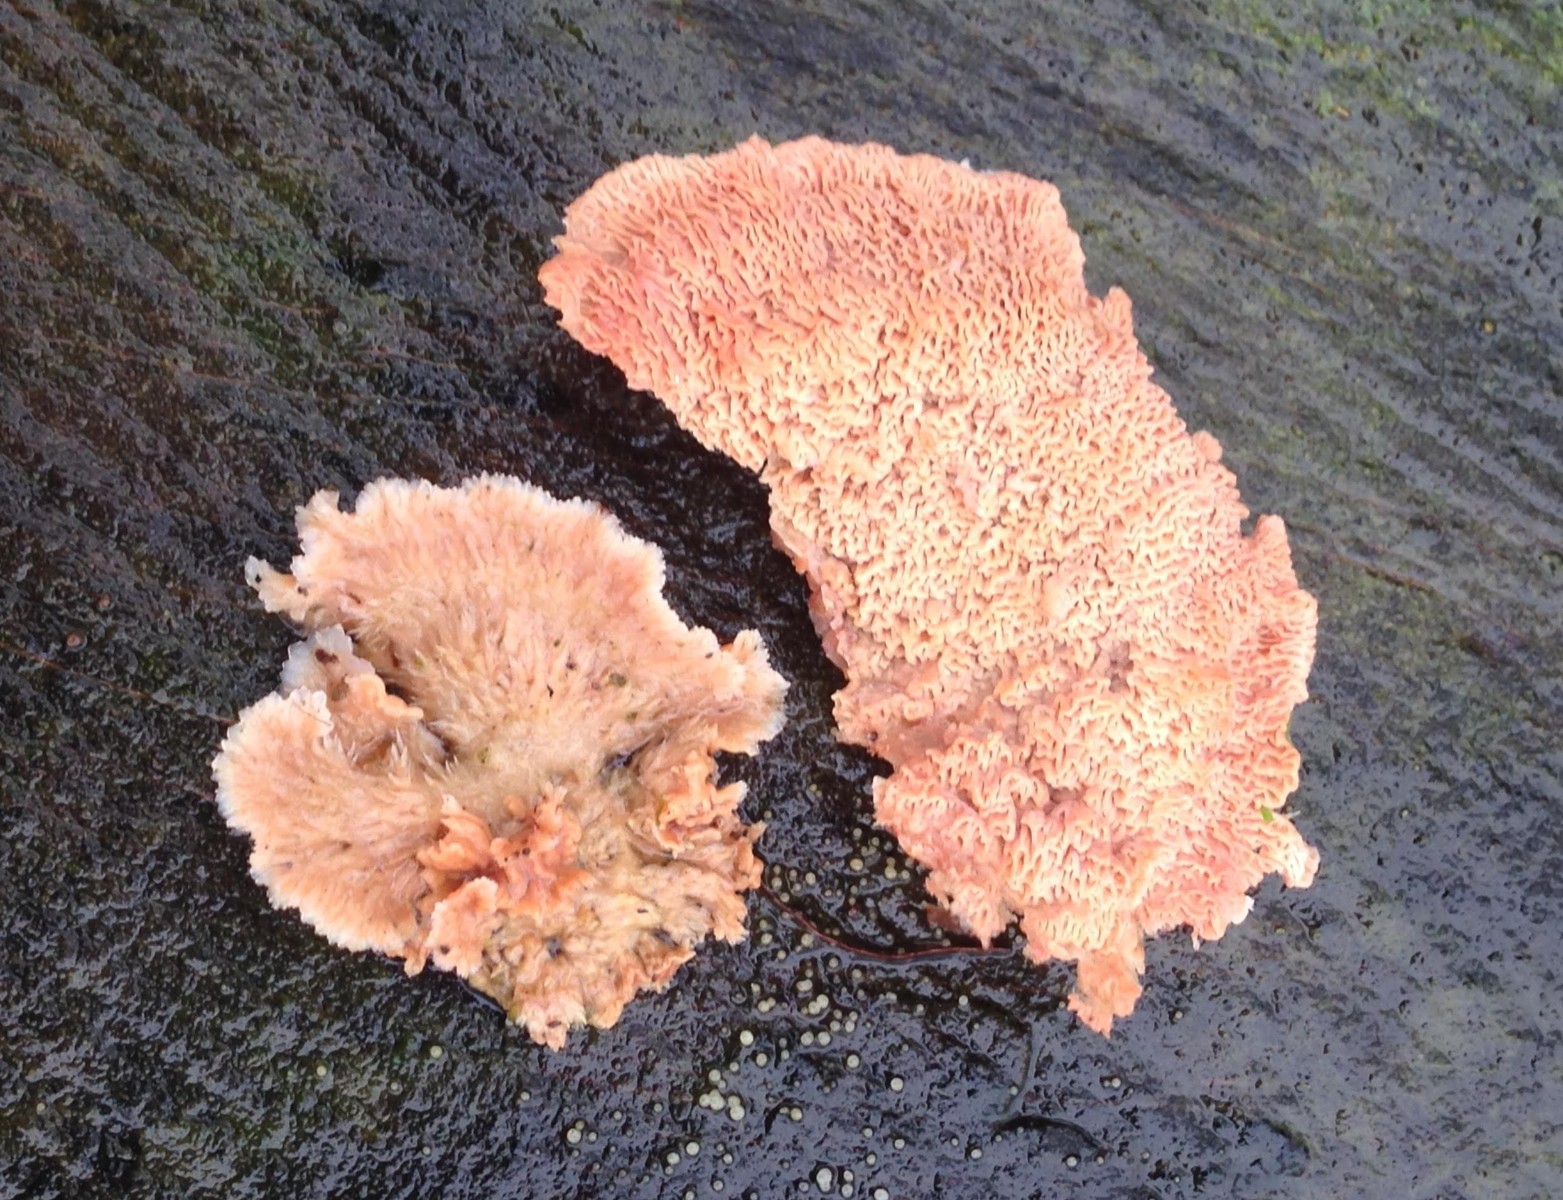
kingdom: Fungi
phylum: Basidiomycota
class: Agaricomycetes
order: Polyporales
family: Meruliaceae
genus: Phlebia
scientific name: Phlebia radiata
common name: stråle-åresvamp
